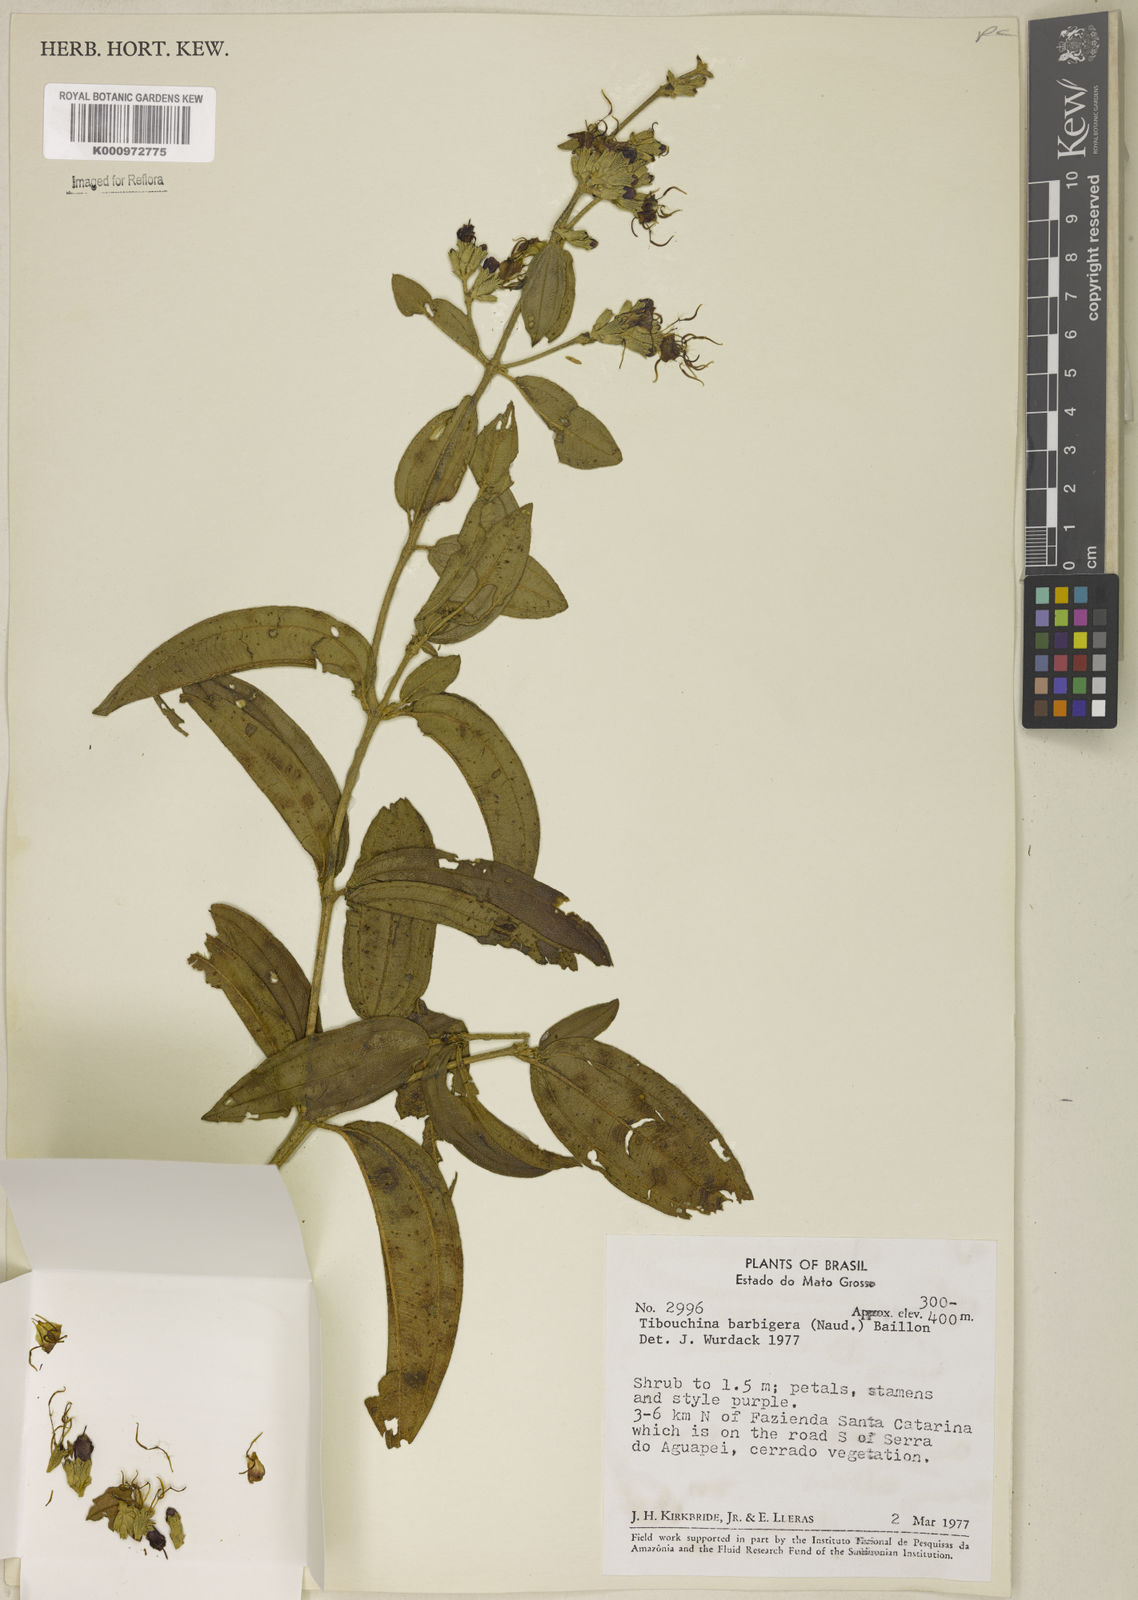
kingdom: Plantae
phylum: Tracheophyta
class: Magnoliopsida
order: Myrtales
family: Melastomataceae
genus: Pleroma
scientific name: Pleroma barbigerum
